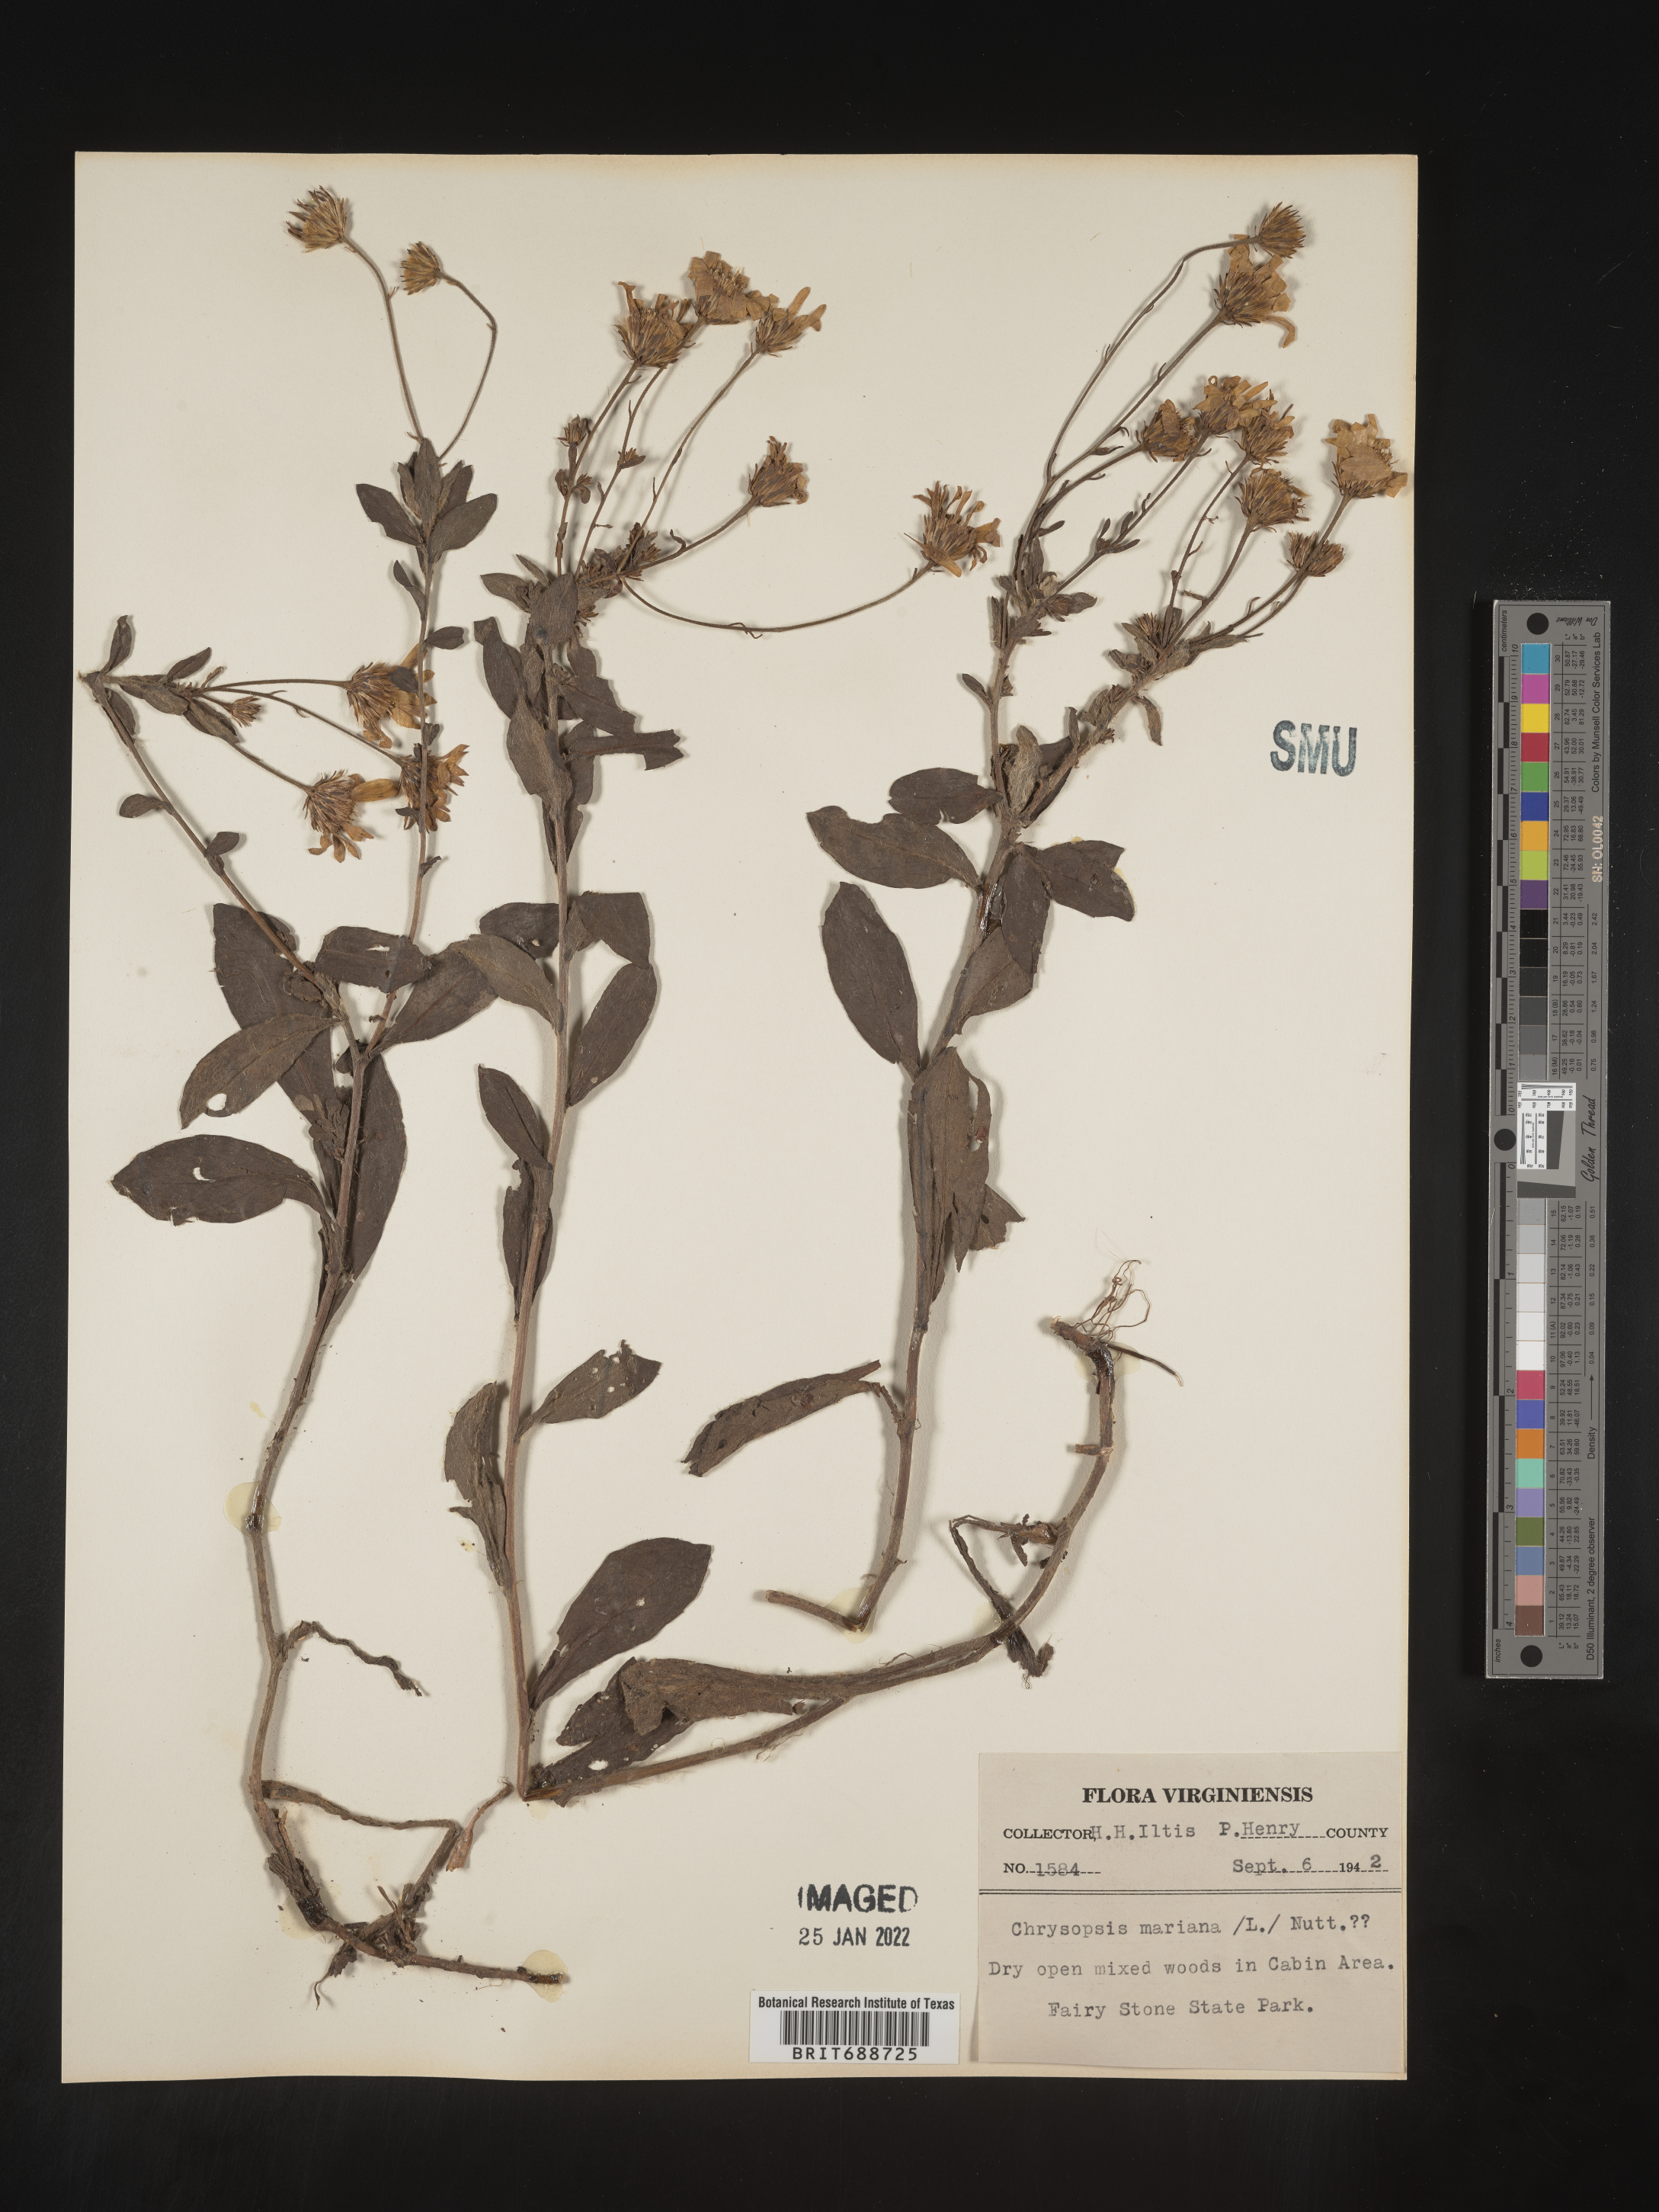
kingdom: Plantae
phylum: Tracheophyta
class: Magnoliopsida
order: Asterales
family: Asteraceae
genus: Chrysopsis
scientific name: Chrysopsis mariana
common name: Maryland golden-aster
